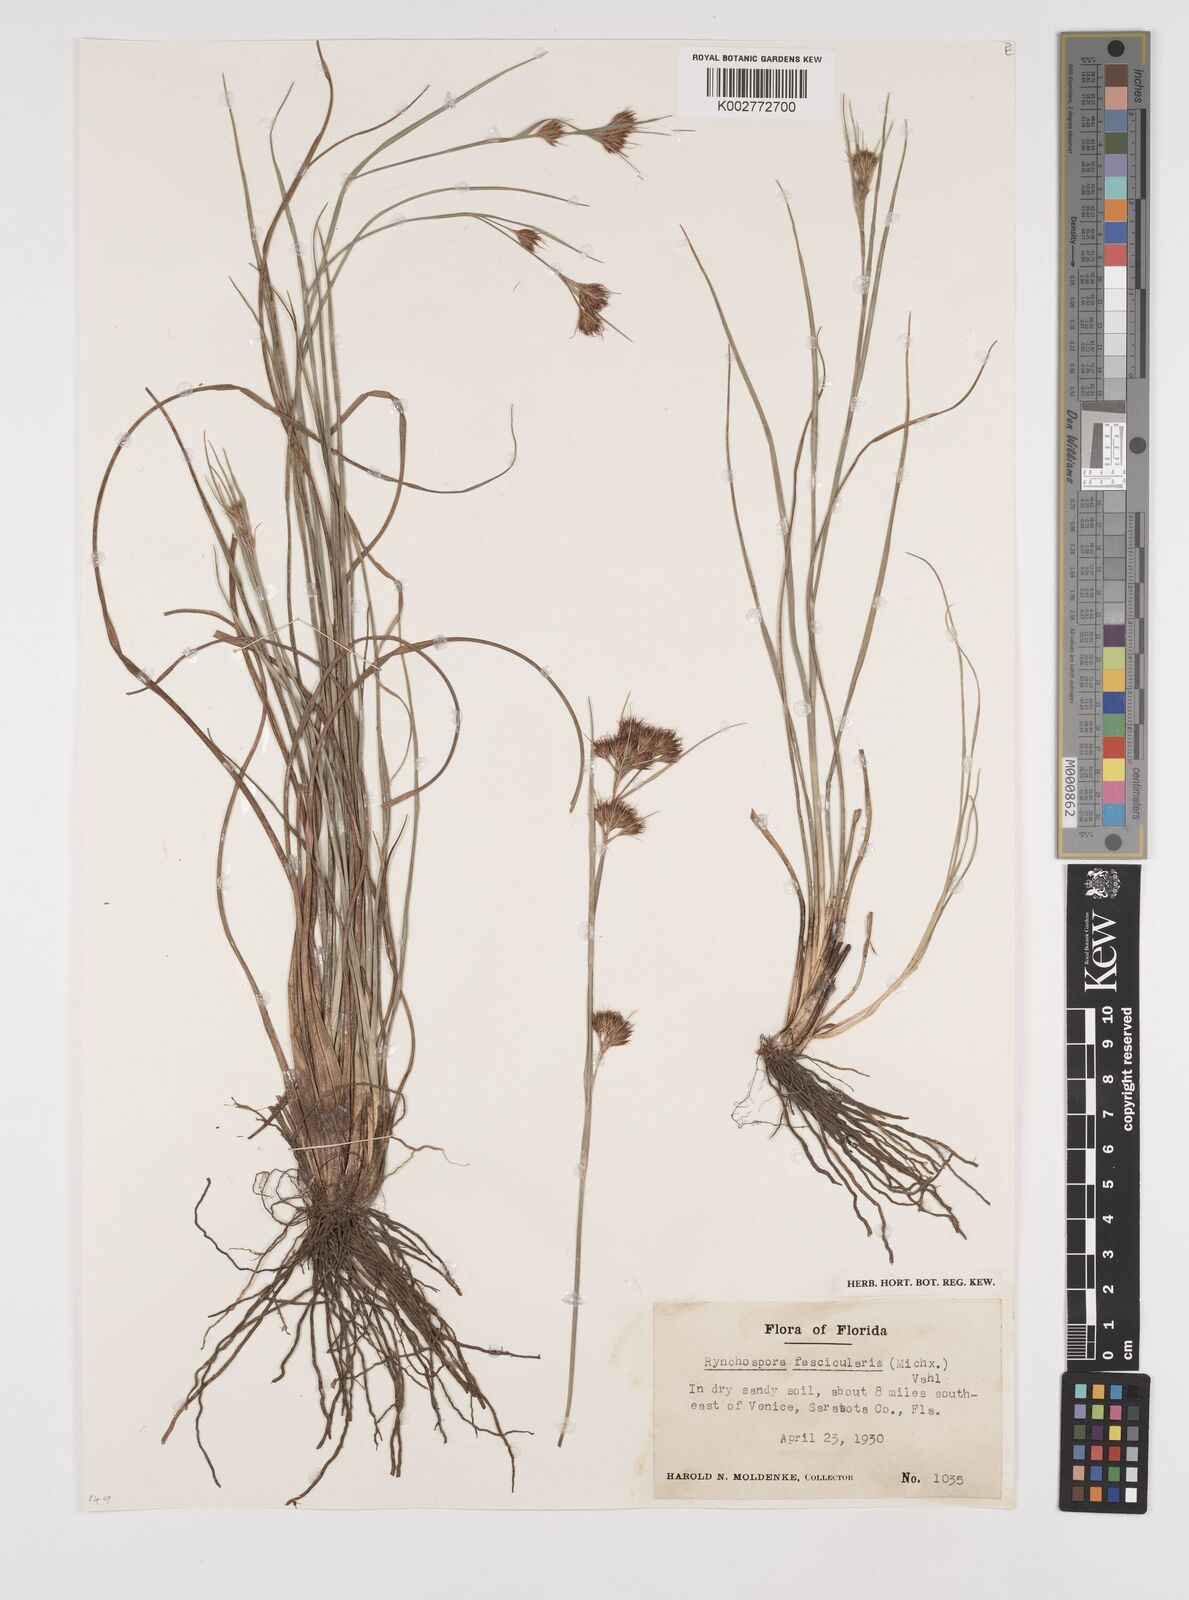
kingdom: Plantae
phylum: Tracheophyta
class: Liliopsida
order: Poales
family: Cyperaceae
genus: Rhynchospora
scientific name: Rhynchospora fascicularis
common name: Fascicled beak sedge
